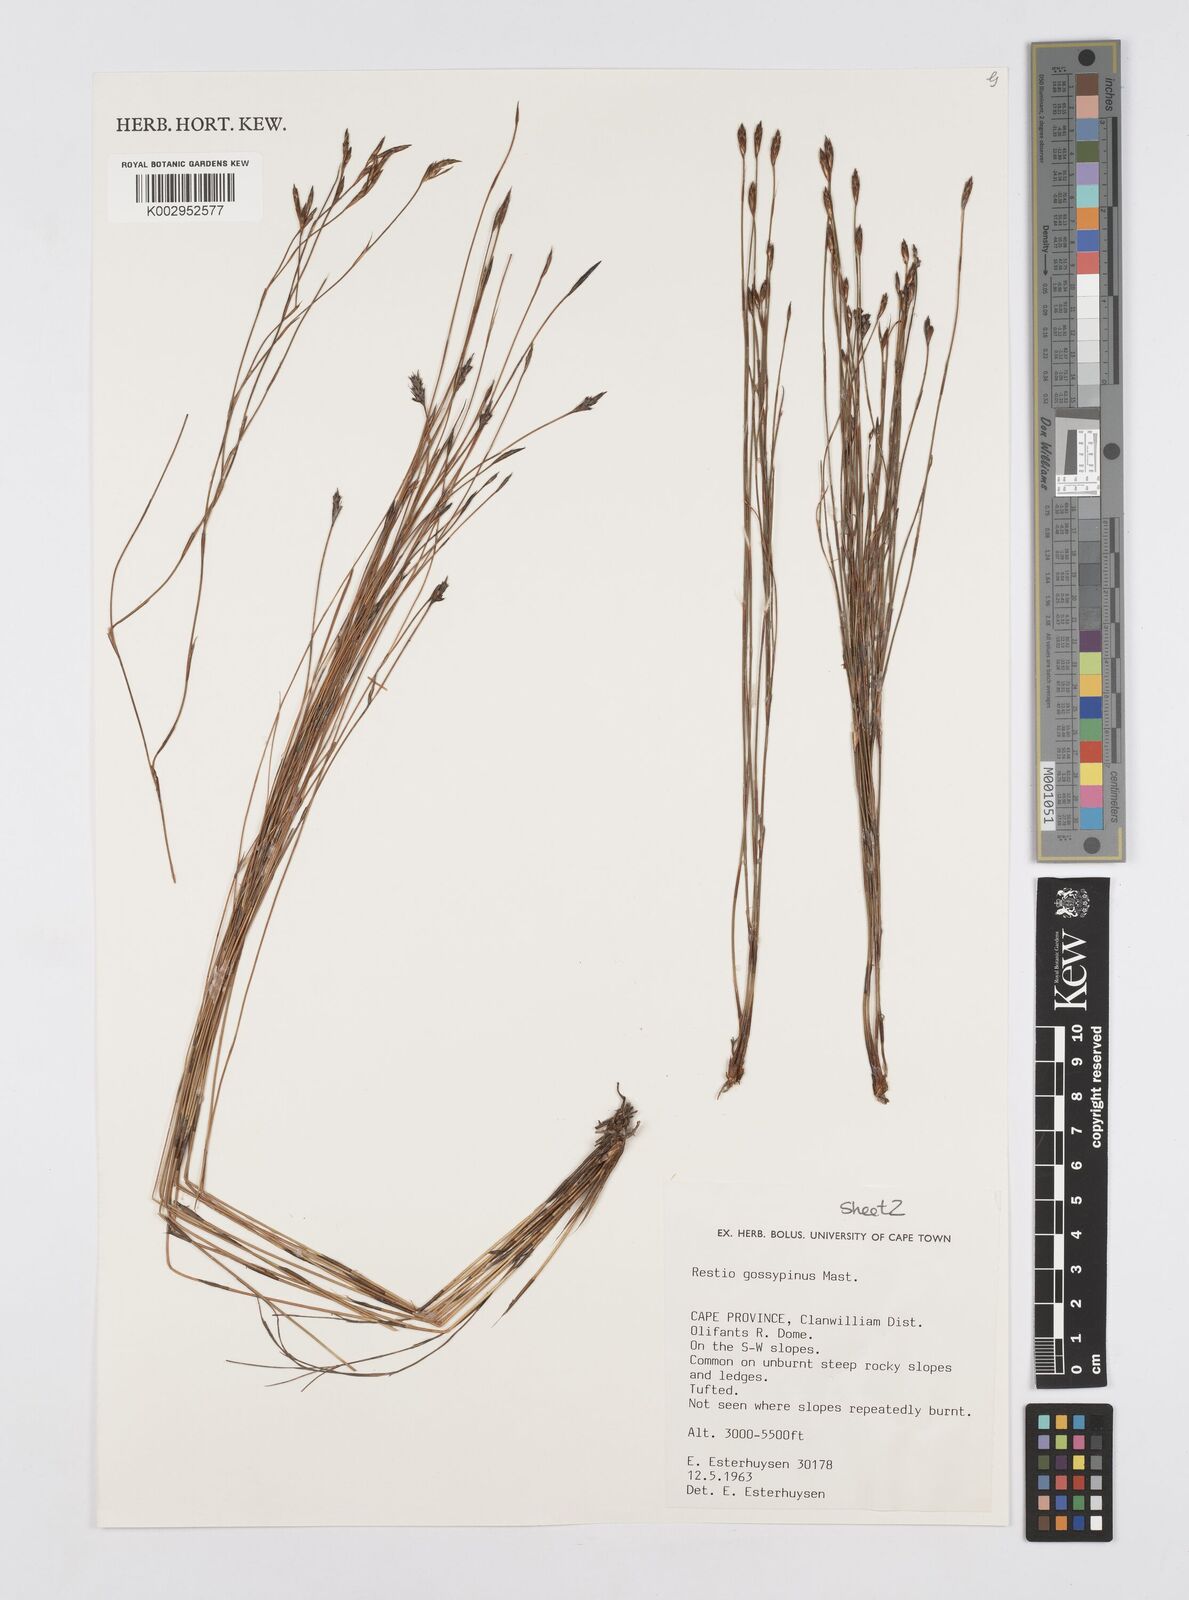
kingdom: Plantae
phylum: Tracheophyta
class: Liliopsida
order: Poales
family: Restionaceae
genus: Restio
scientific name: Restio gossypinus
